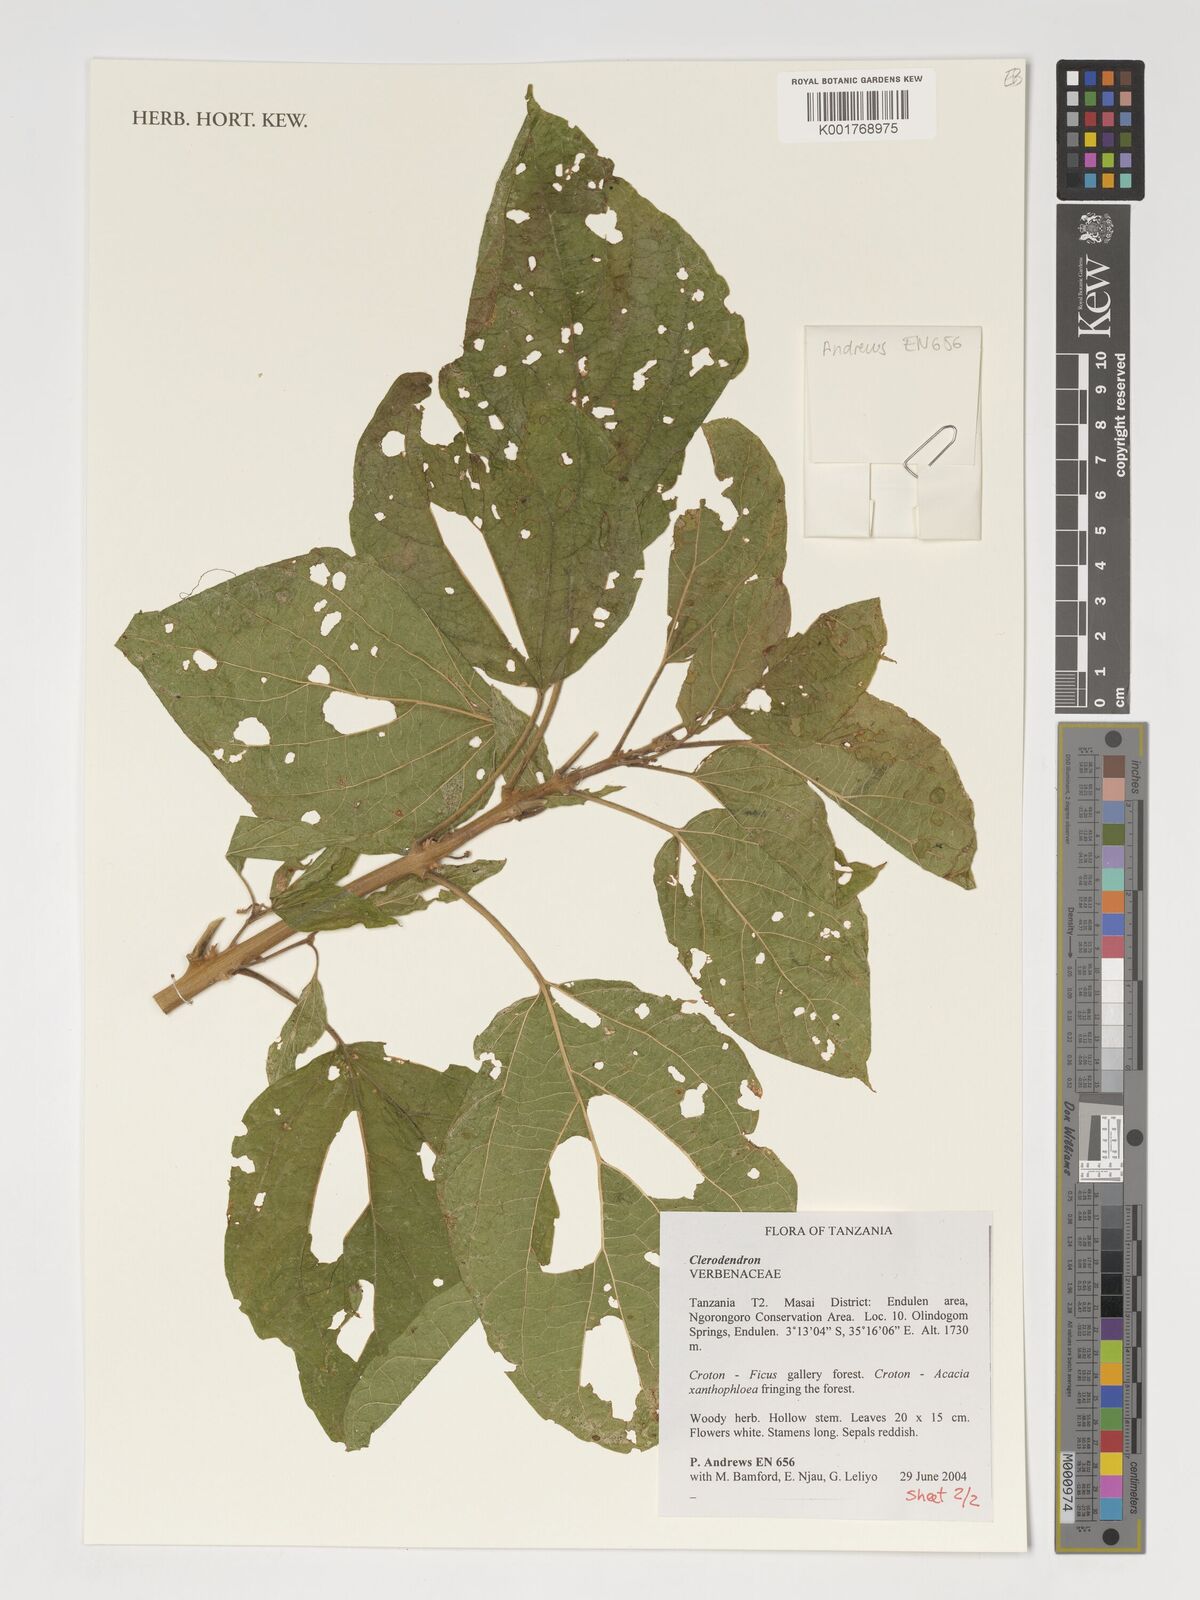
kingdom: Plantae
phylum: Tracheophyta
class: Magnoliopsida
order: Lamiales
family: Verbenaceae
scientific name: Verbenaceae
